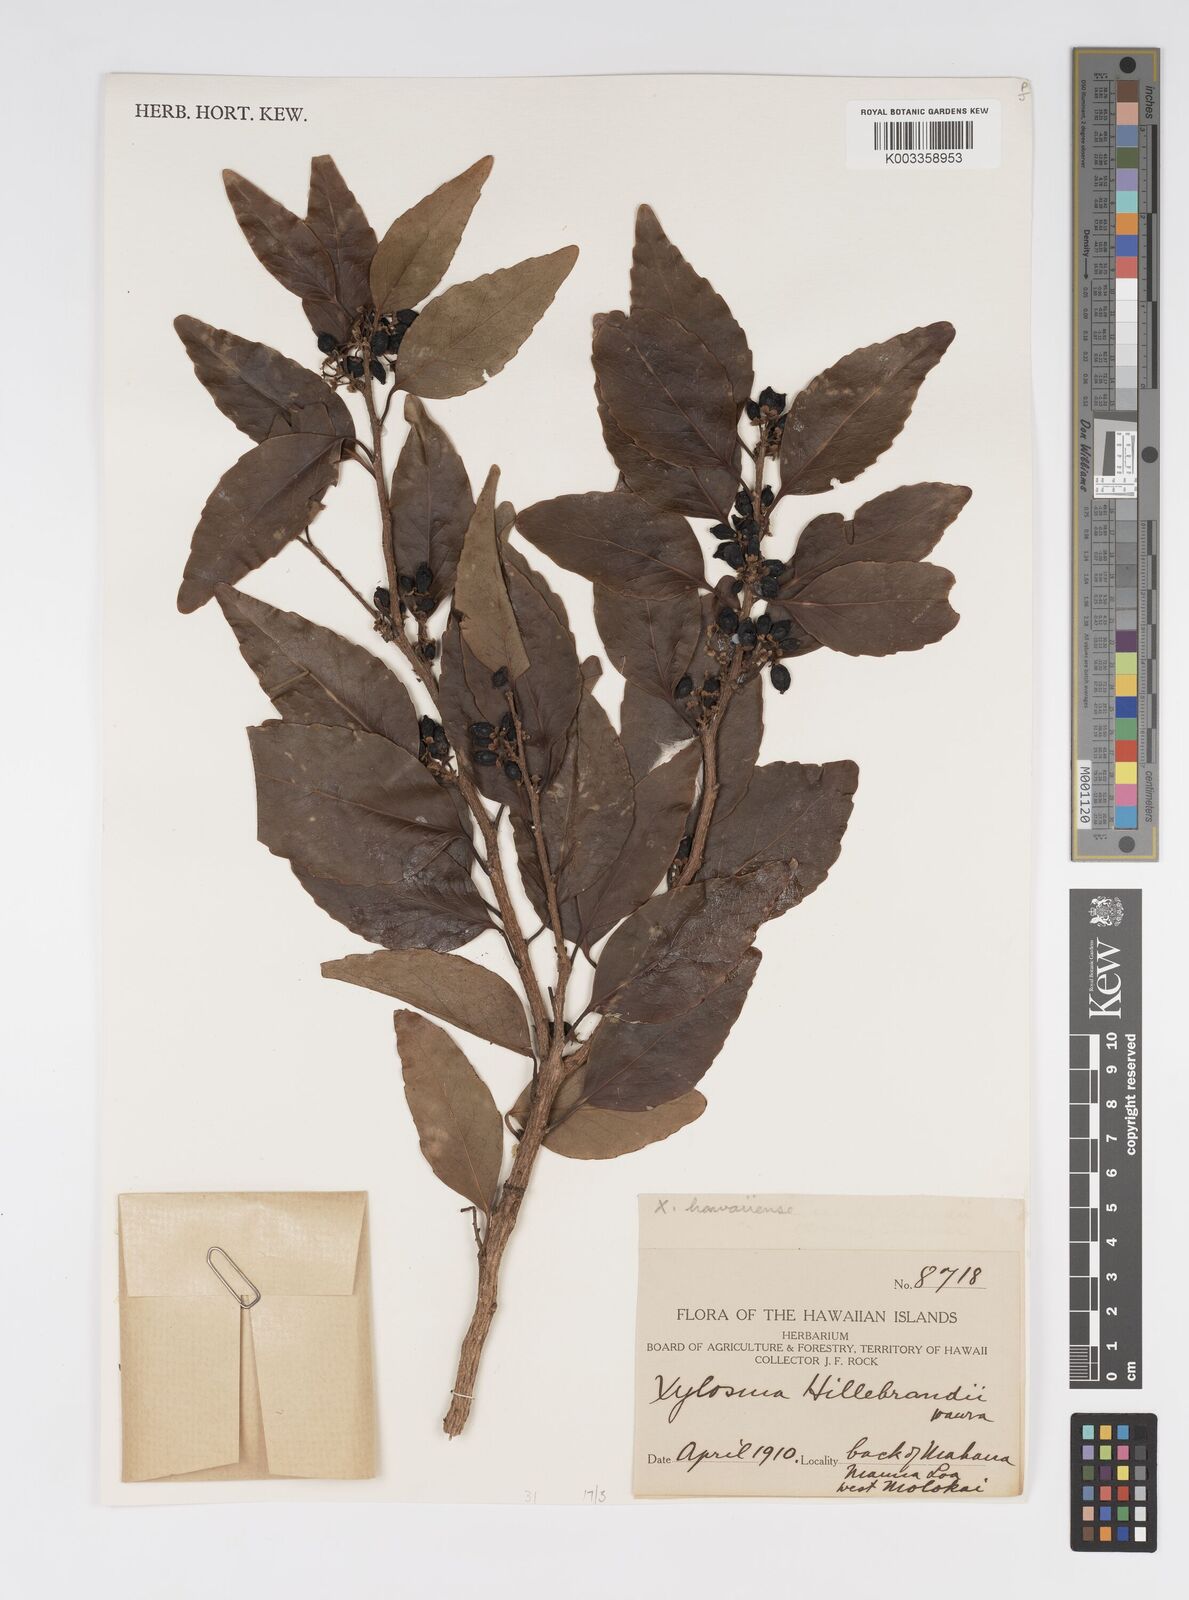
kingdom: Plantae
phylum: Tracheophyta
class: Magnoliopsida
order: Malpighiales
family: Salicaceae
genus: Xylosma
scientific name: Xylosma hawaiense
